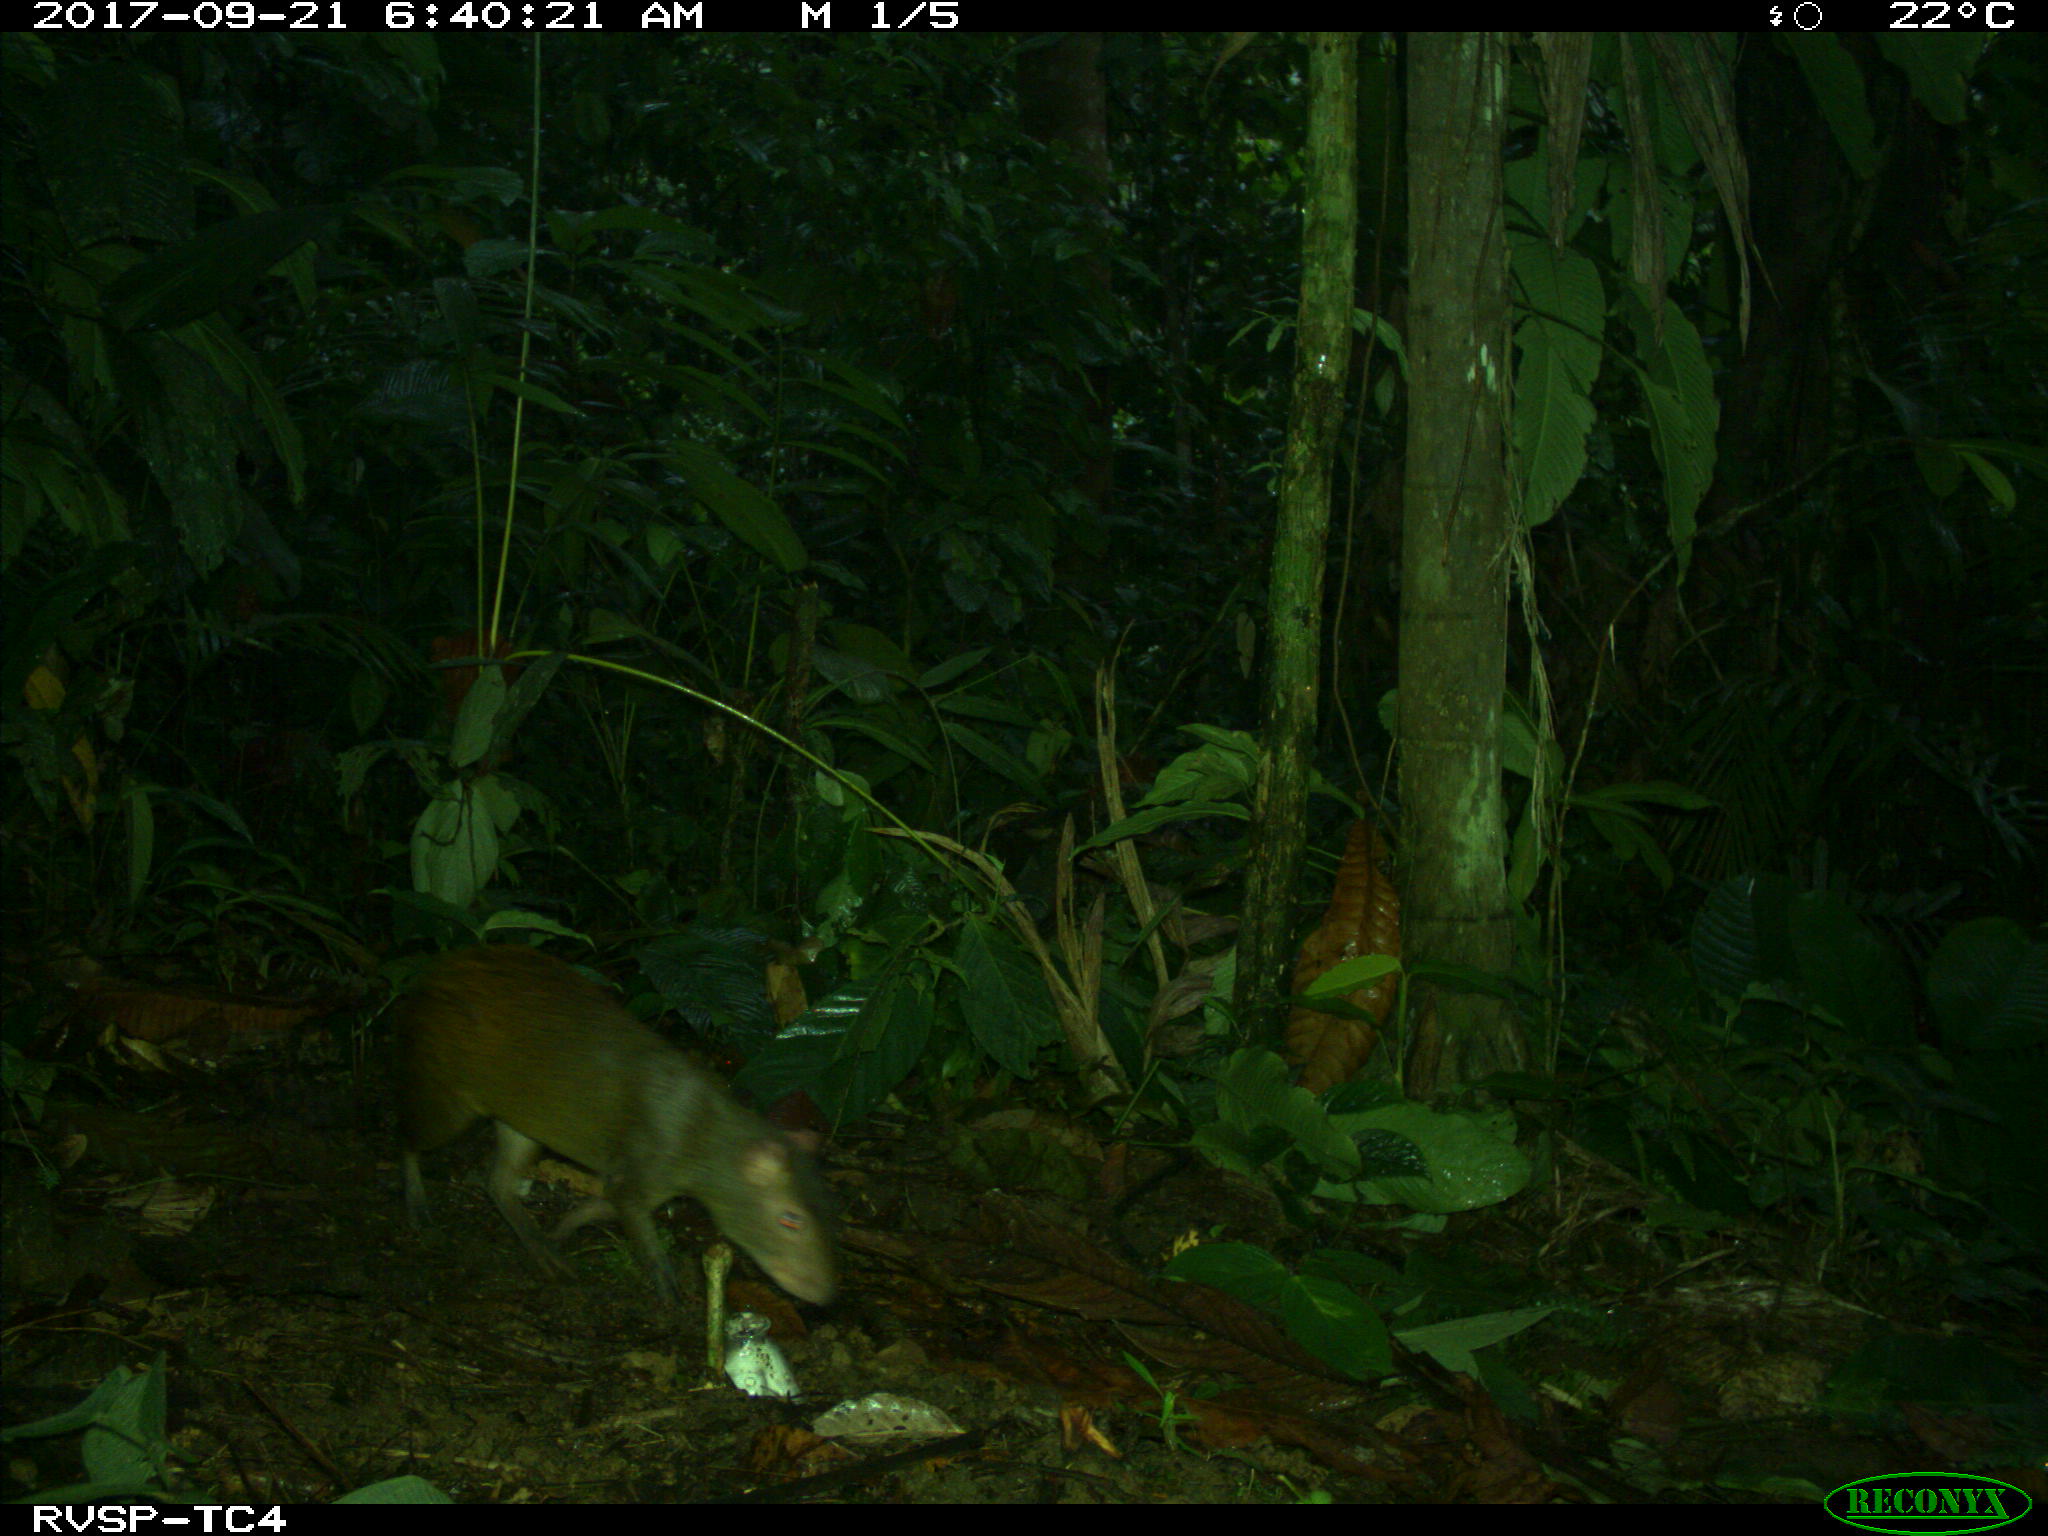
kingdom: Animalia
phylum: Chordata
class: Mammalia
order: Rodentia
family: Dasyproctidae
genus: Dasyprocta
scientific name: Dasyprocta punctata
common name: Central american agouti
